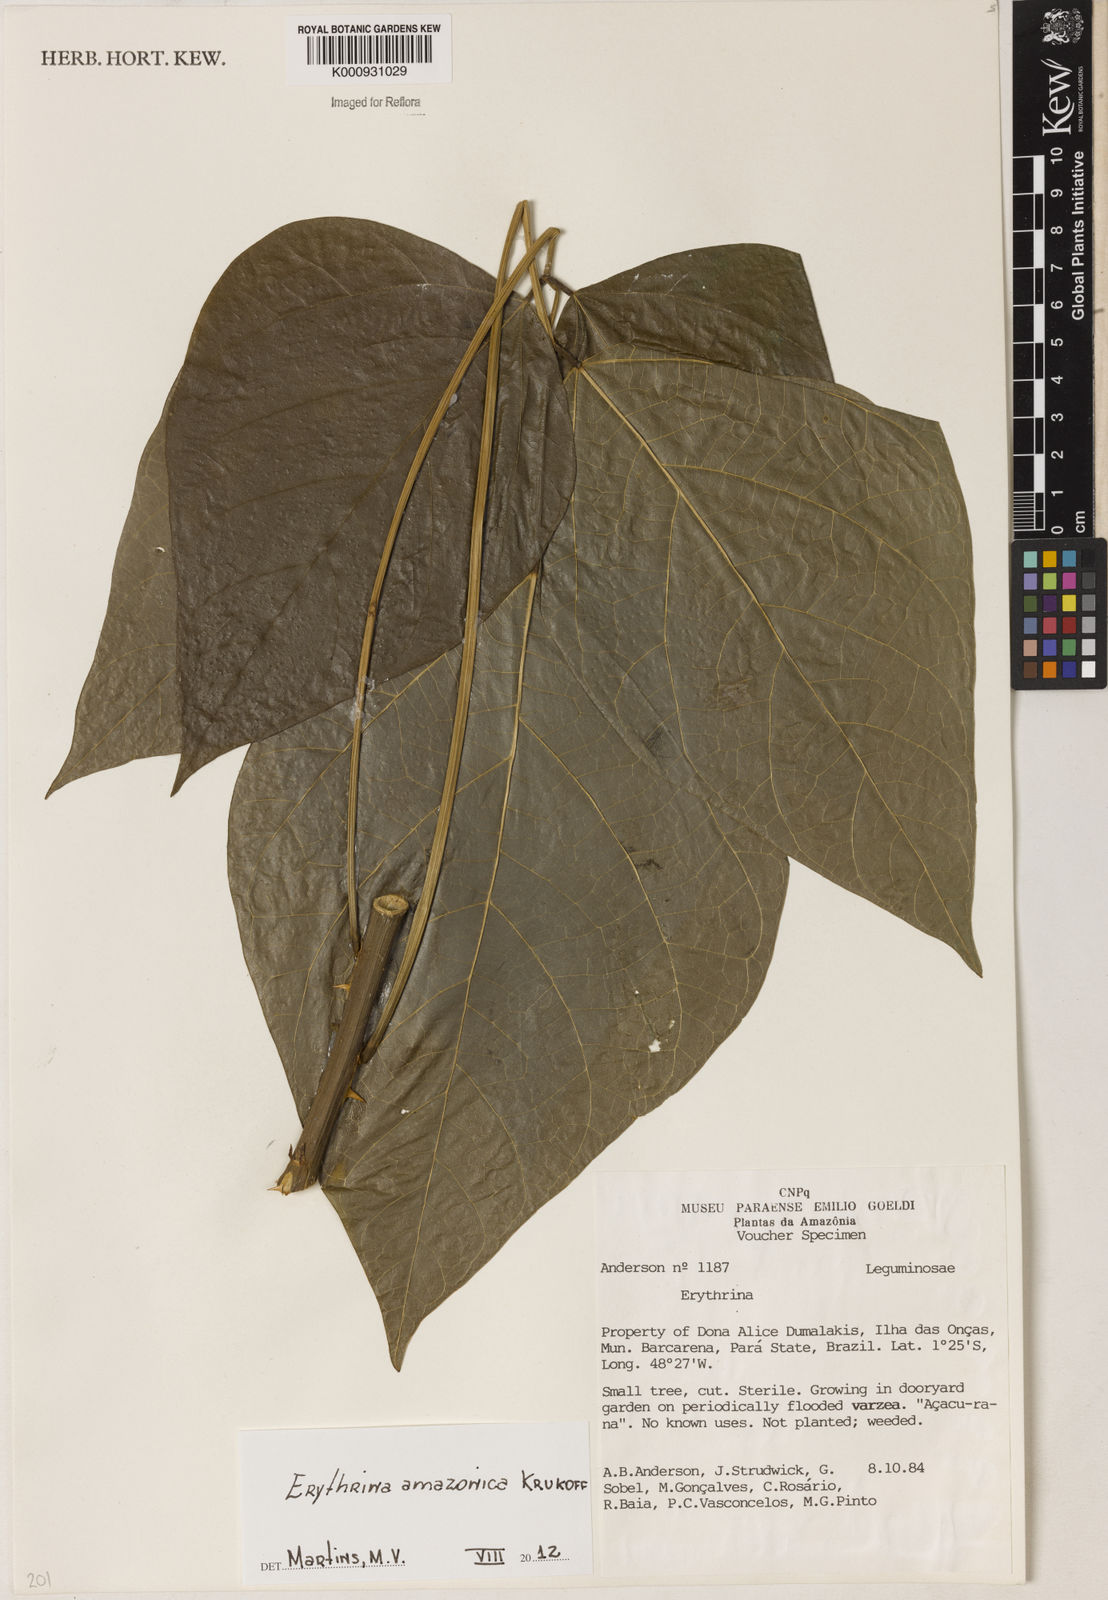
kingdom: Plantae
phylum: Tracheophyta
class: Magnoliopsida
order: Fabales
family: Fabaceae
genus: Erythrina
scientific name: Erythrina amazonica
